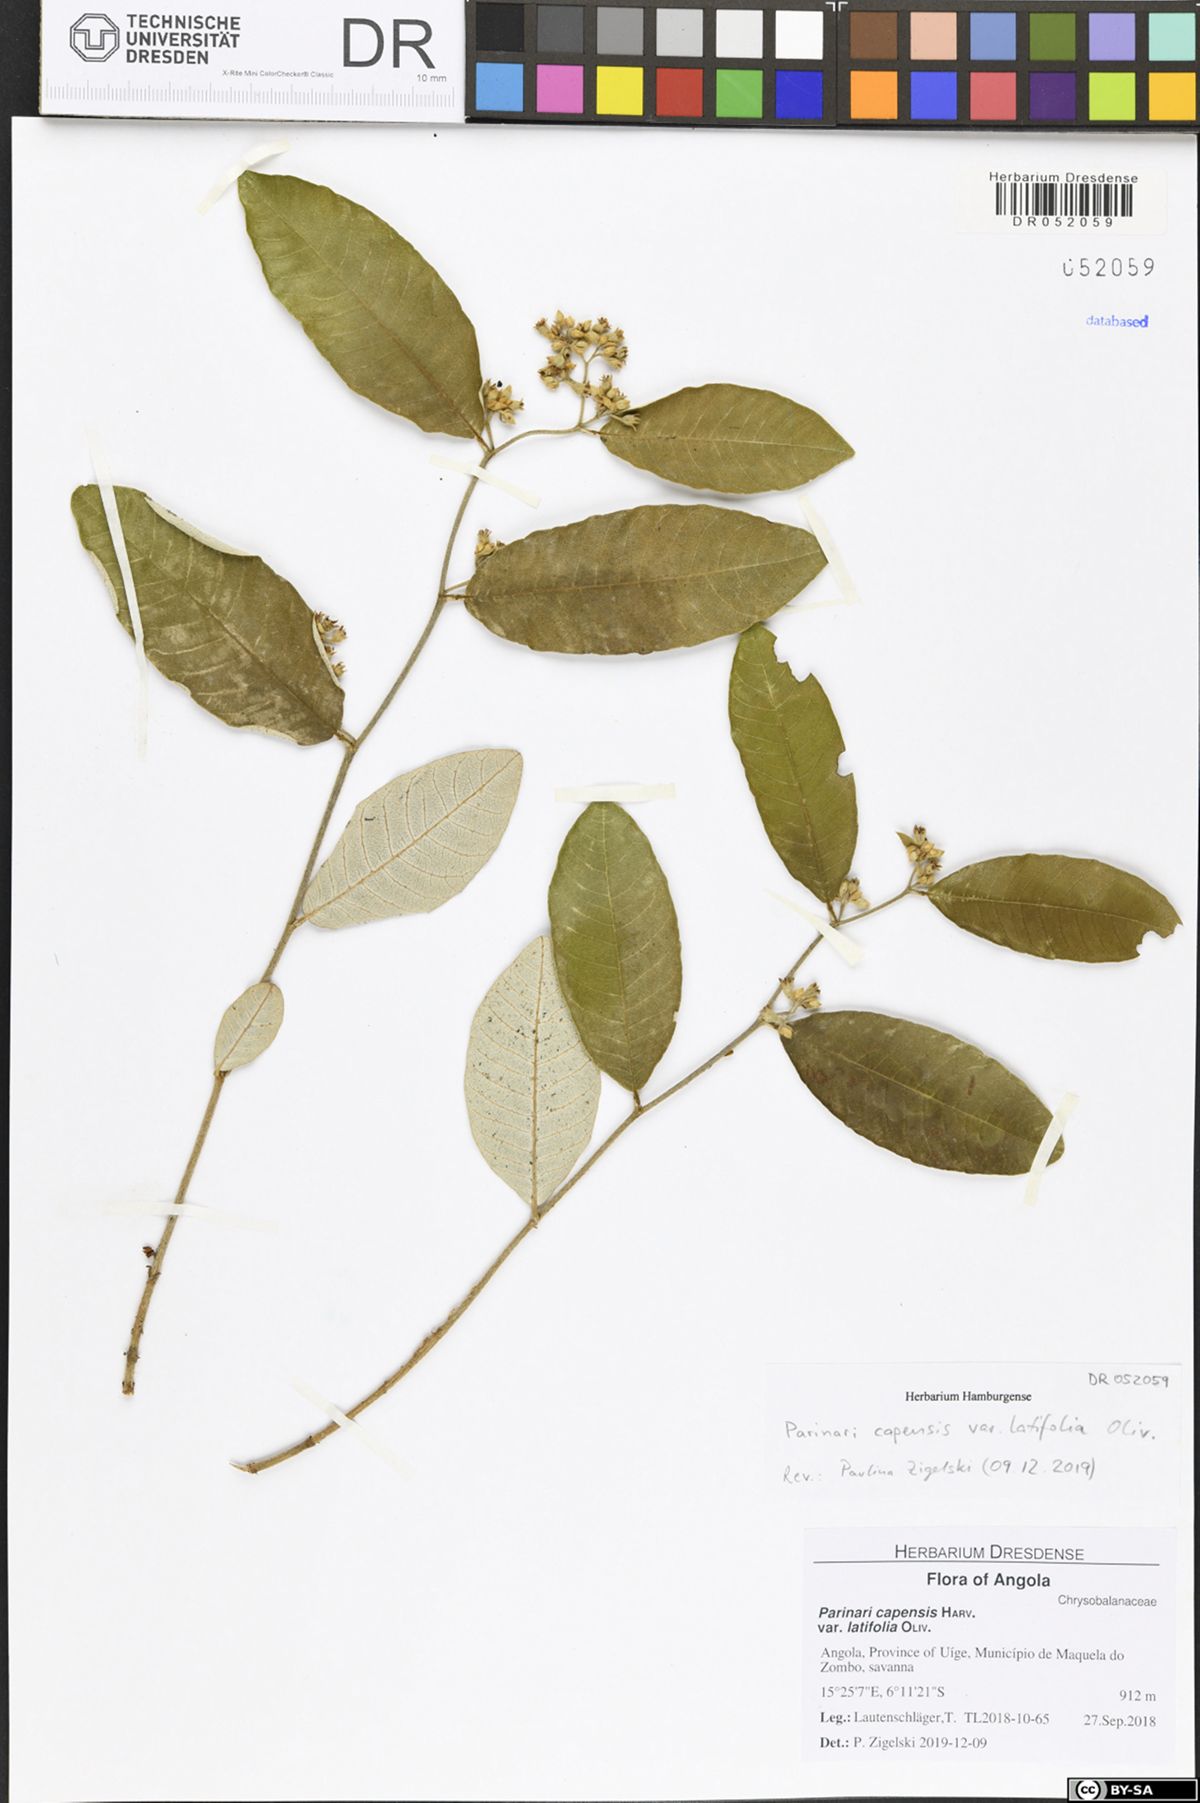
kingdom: Plantae
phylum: Tracheophyta
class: Magnoliopsida
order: Malpighiales
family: Chrysobalanaceae
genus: Parinari
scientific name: Parinari capensis
